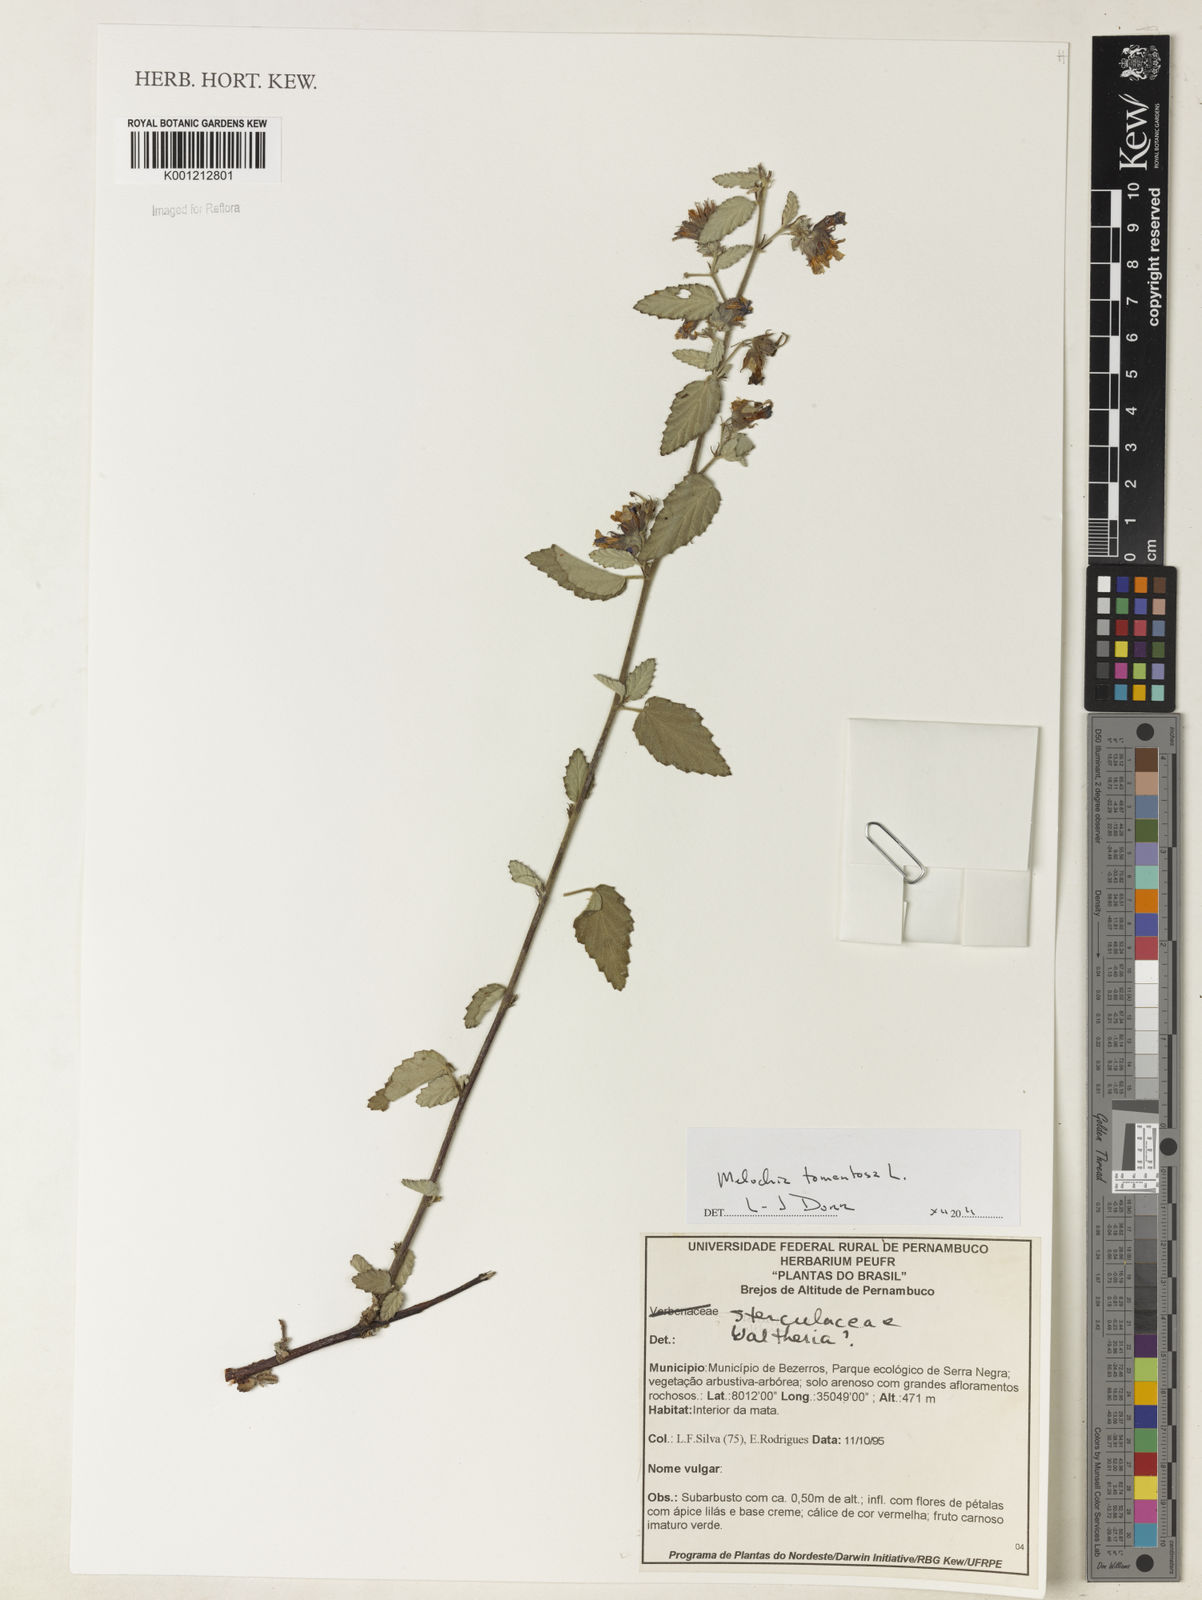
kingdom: Plantae
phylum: Tracheophyta
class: Magnoliopsida
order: Malvales
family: Malvaceae
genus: Melochia
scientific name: Melochia tomentosa
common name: Black torch
